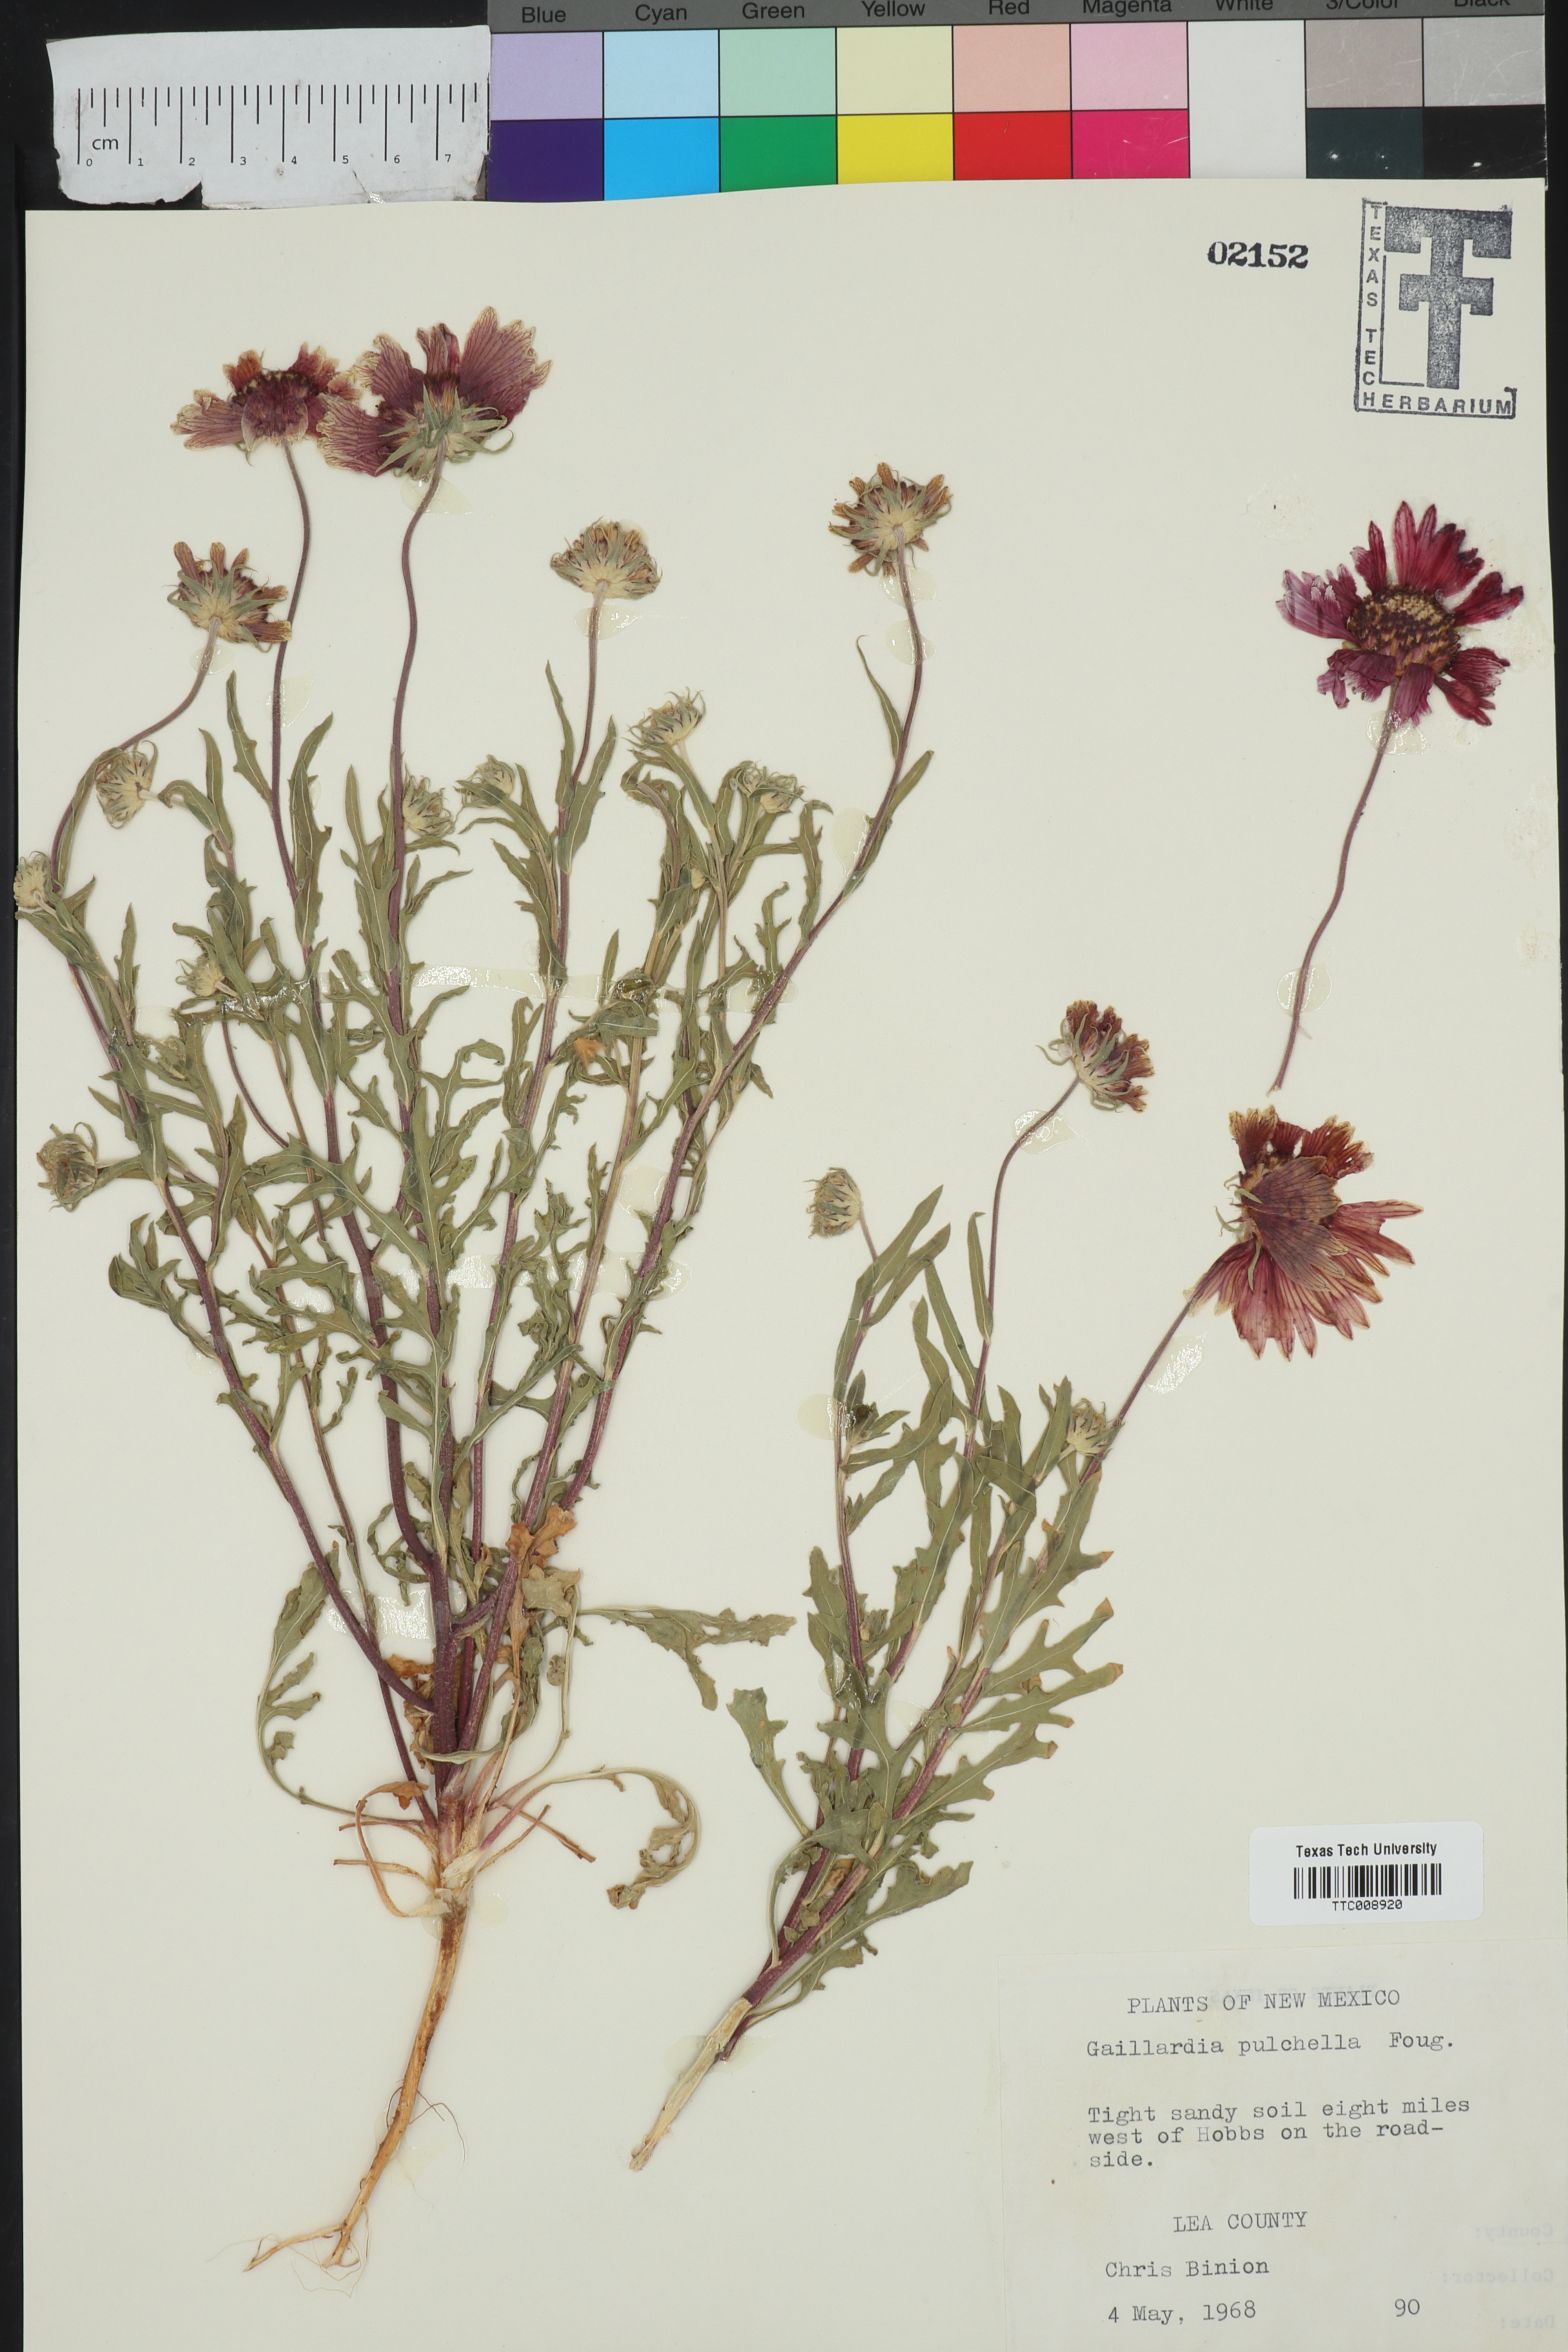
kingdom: Plantae
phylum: Tracheophyta
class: Magnoliopsida
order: Asterales
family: Asteraceae
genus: Gaillardia
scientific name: Gaillardia pulchella
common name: Firewheel
